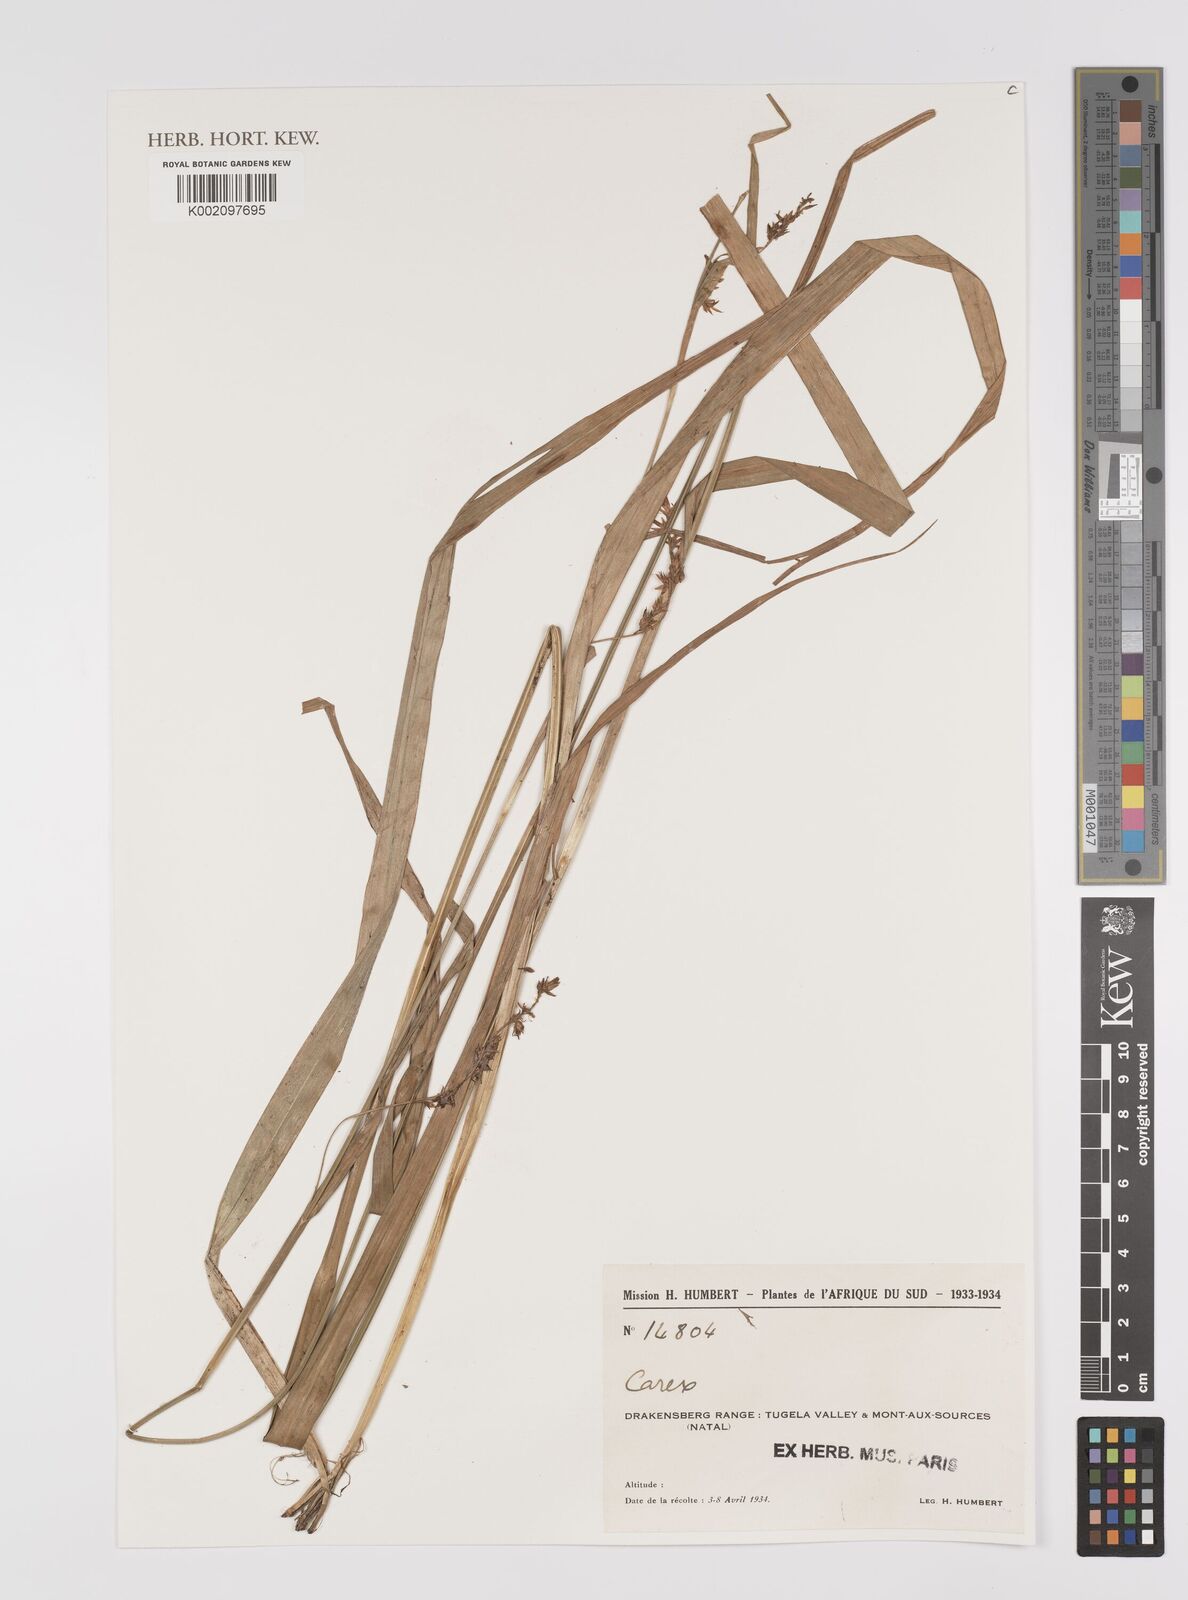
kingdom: Plantae
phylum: Tracheophyta
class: Liliopsida
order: Poales
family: Cyperaceae
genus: Carex
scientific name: Carex
